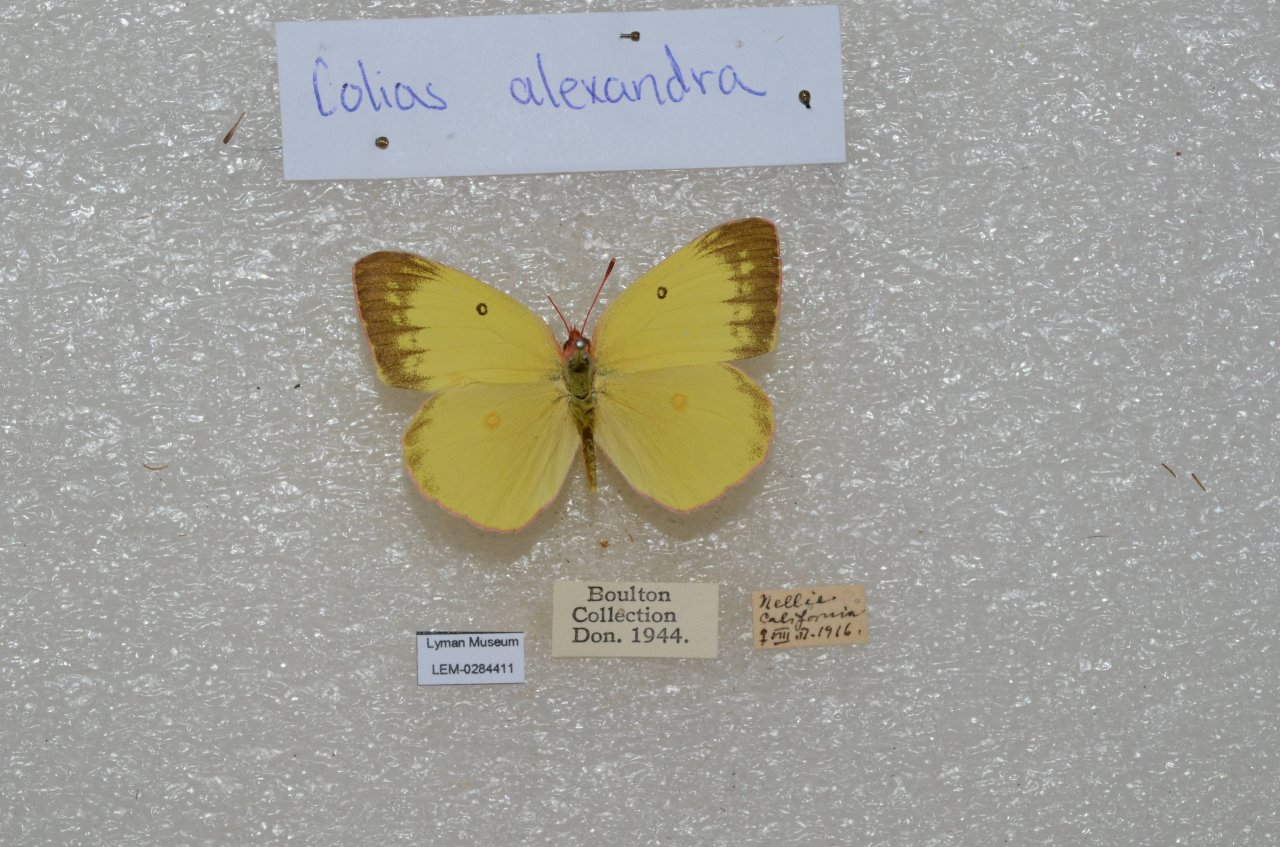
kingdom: Animalia
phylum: Arthropoda
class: Insecta
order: Lepidoptera
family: Pieridae
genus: Colias
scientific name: Colias alexandra
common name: Queen Alexandra's Sulphur
